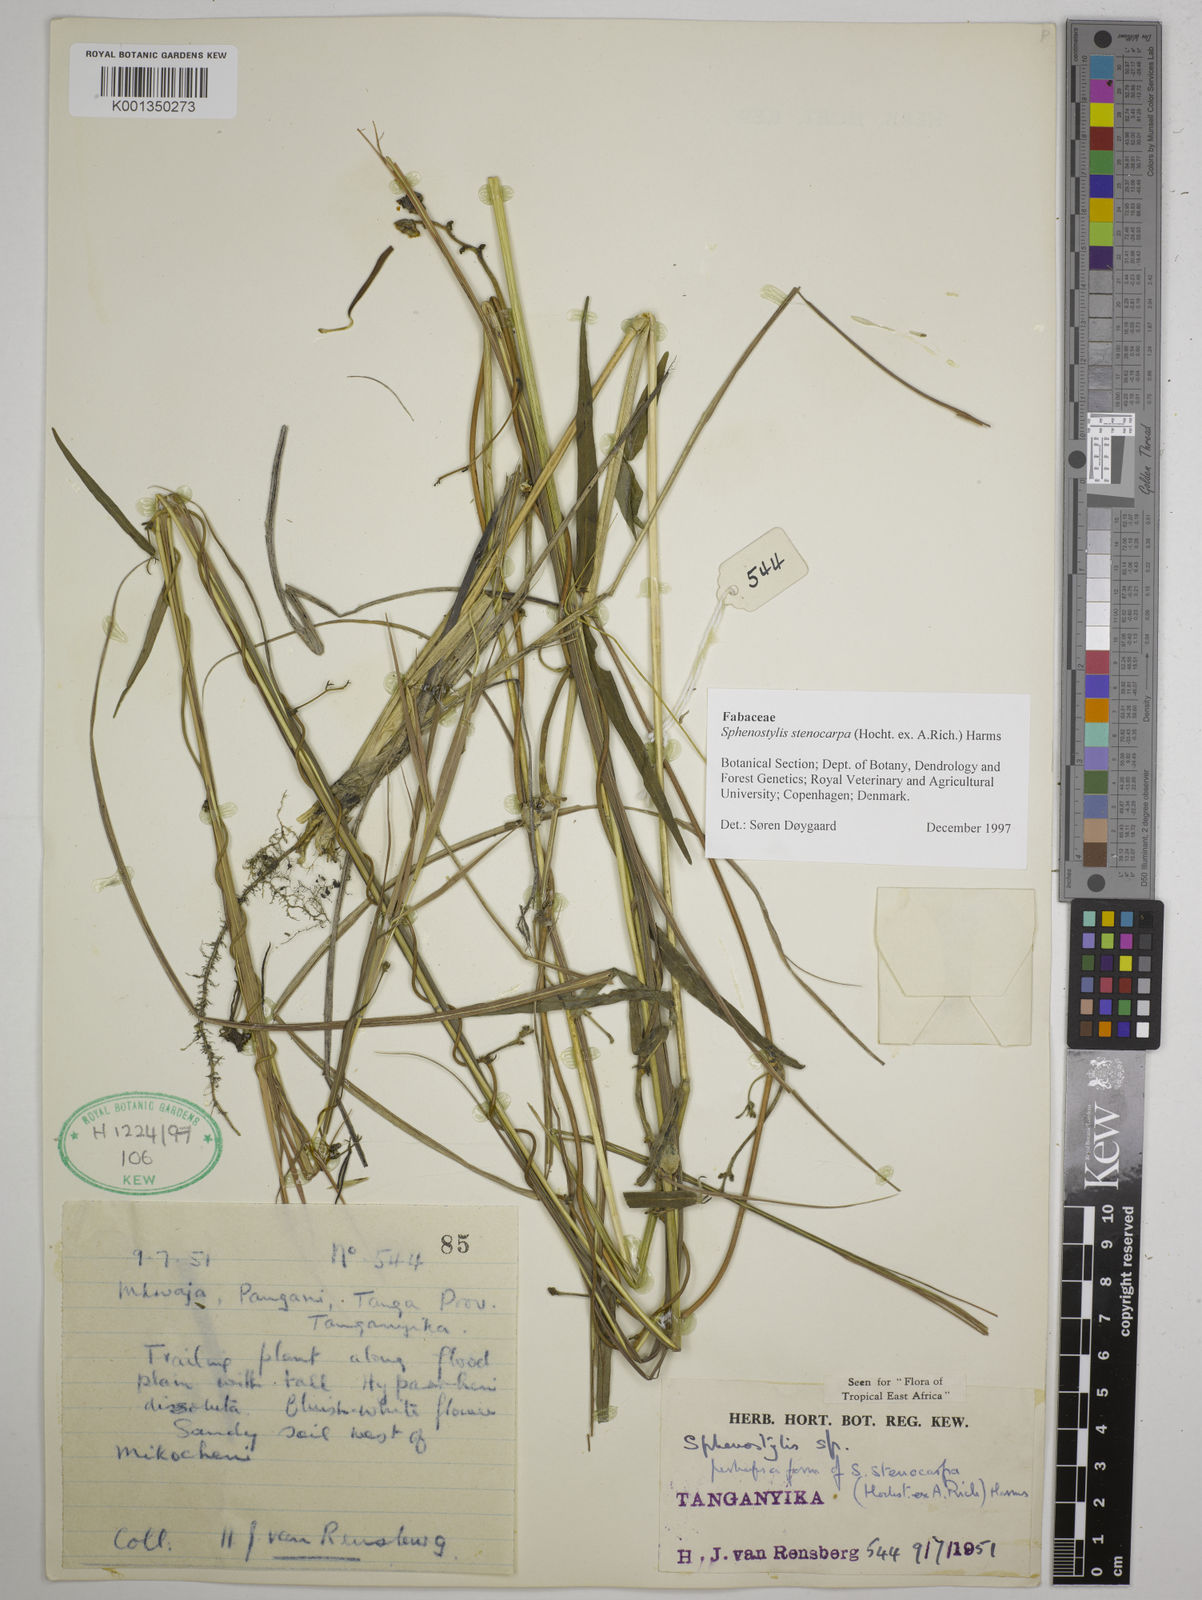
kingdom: Plantae
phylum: Tracheophyta
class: Magnoliopsida
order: Fabales
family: Fabaceae
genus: Sphenostylis
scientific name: Sphenostylis stenocarpa
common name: Yam-pea
